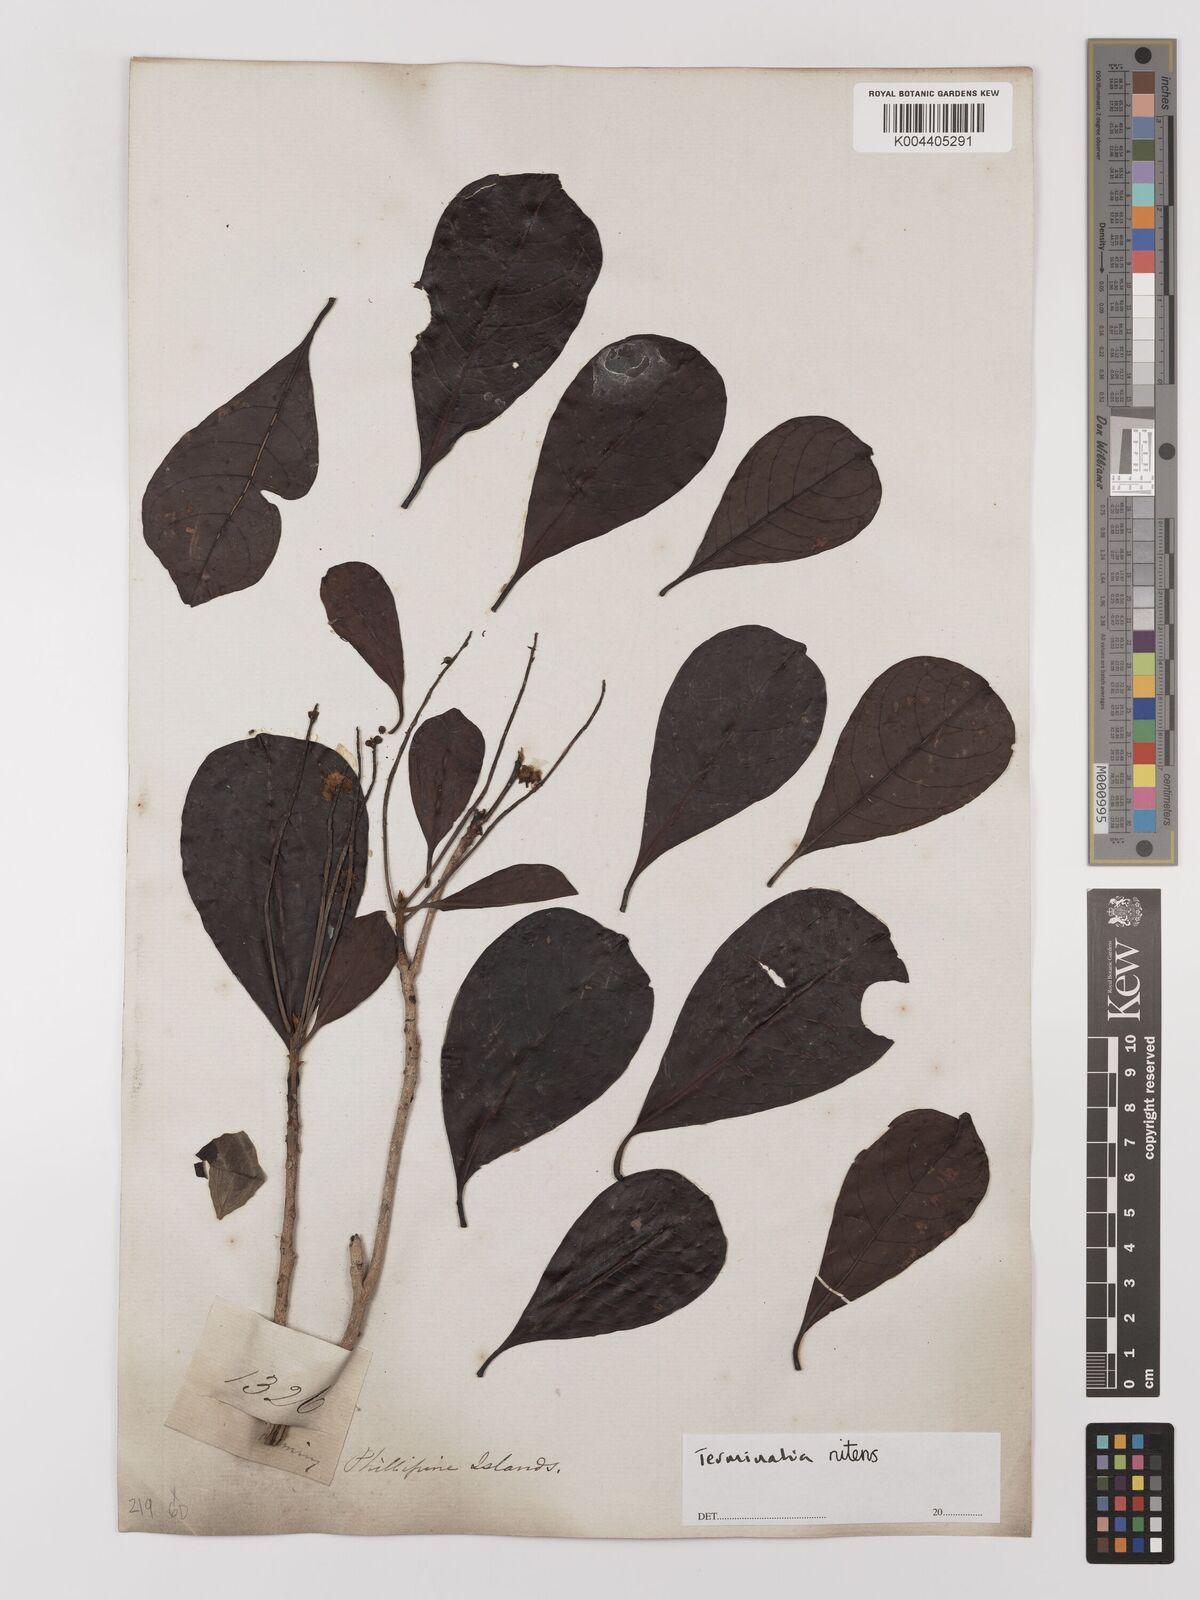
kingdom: Plantae
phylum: Tracheophyta
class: Magnoliopsida
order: Myrtales
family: Combretaceae
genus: Terminalia
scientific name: Terminalia nitens
